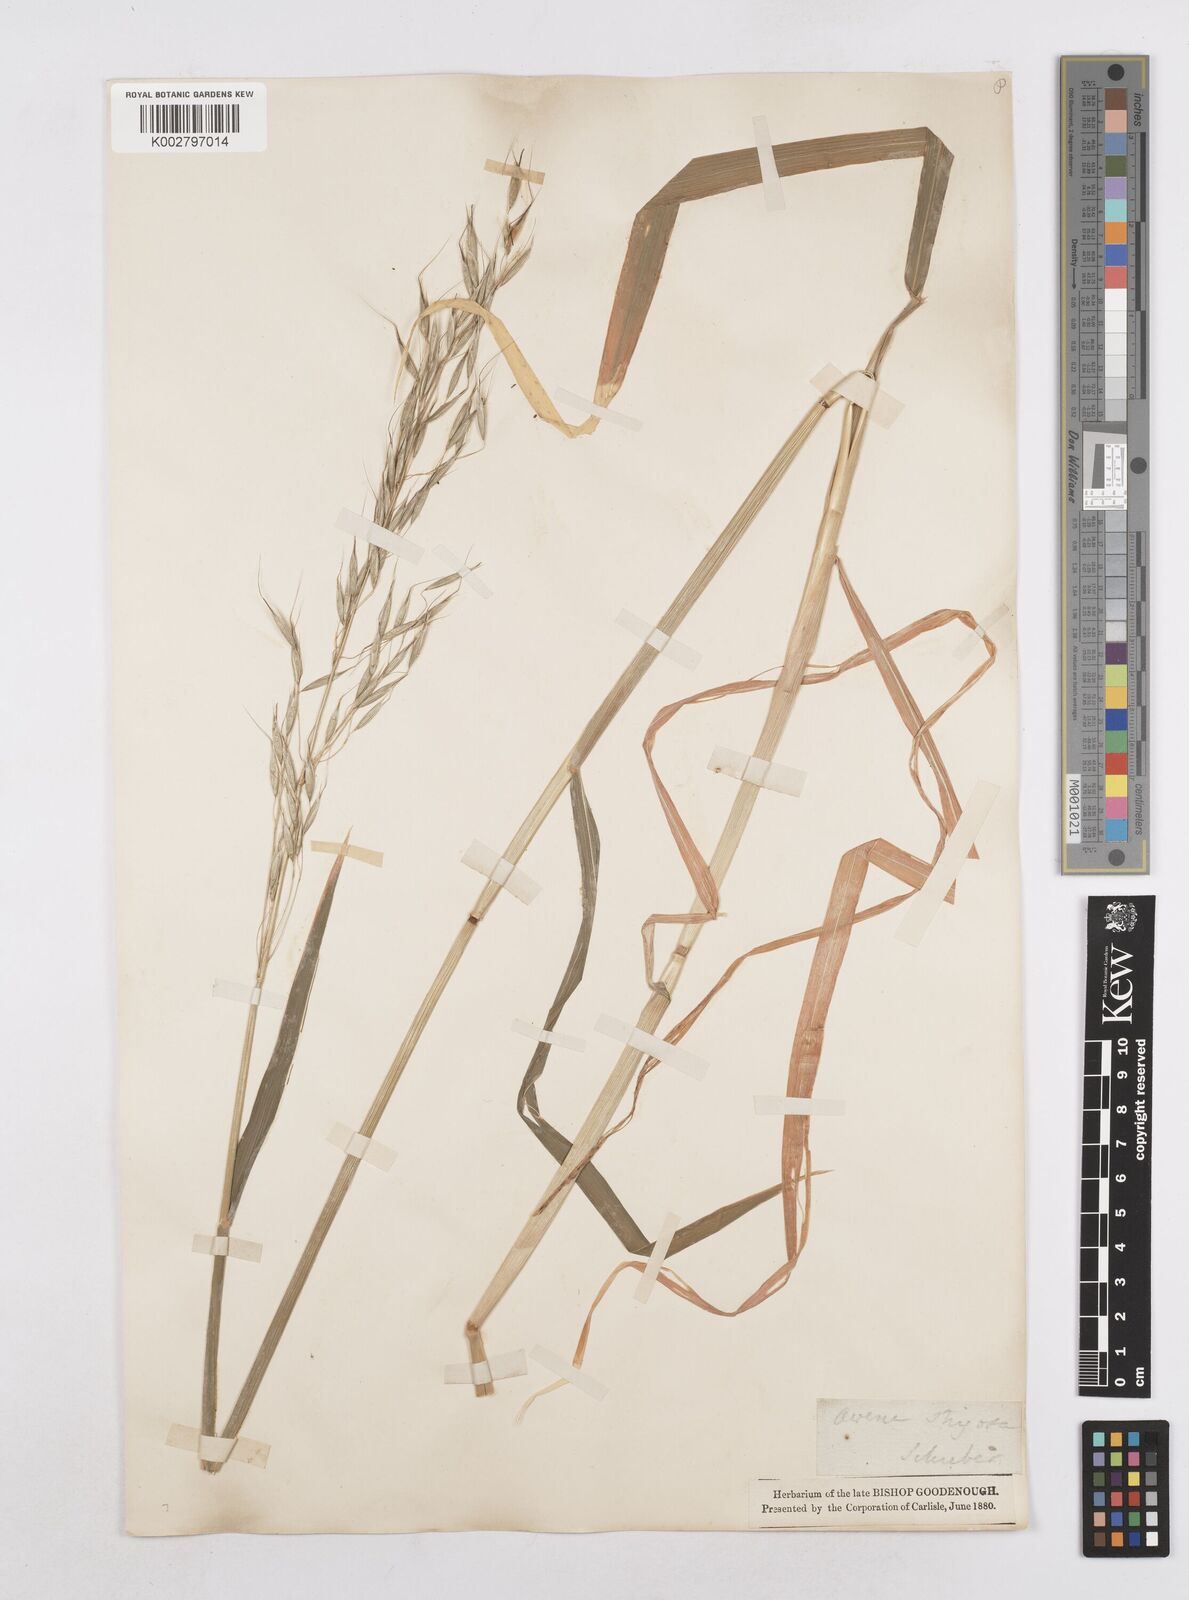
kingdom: Plantae
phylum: Tracheophyta
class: Liliopsida
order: Poales
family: Poaceae
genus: Avena
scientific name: Avena strigosa
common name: Bristle oat
